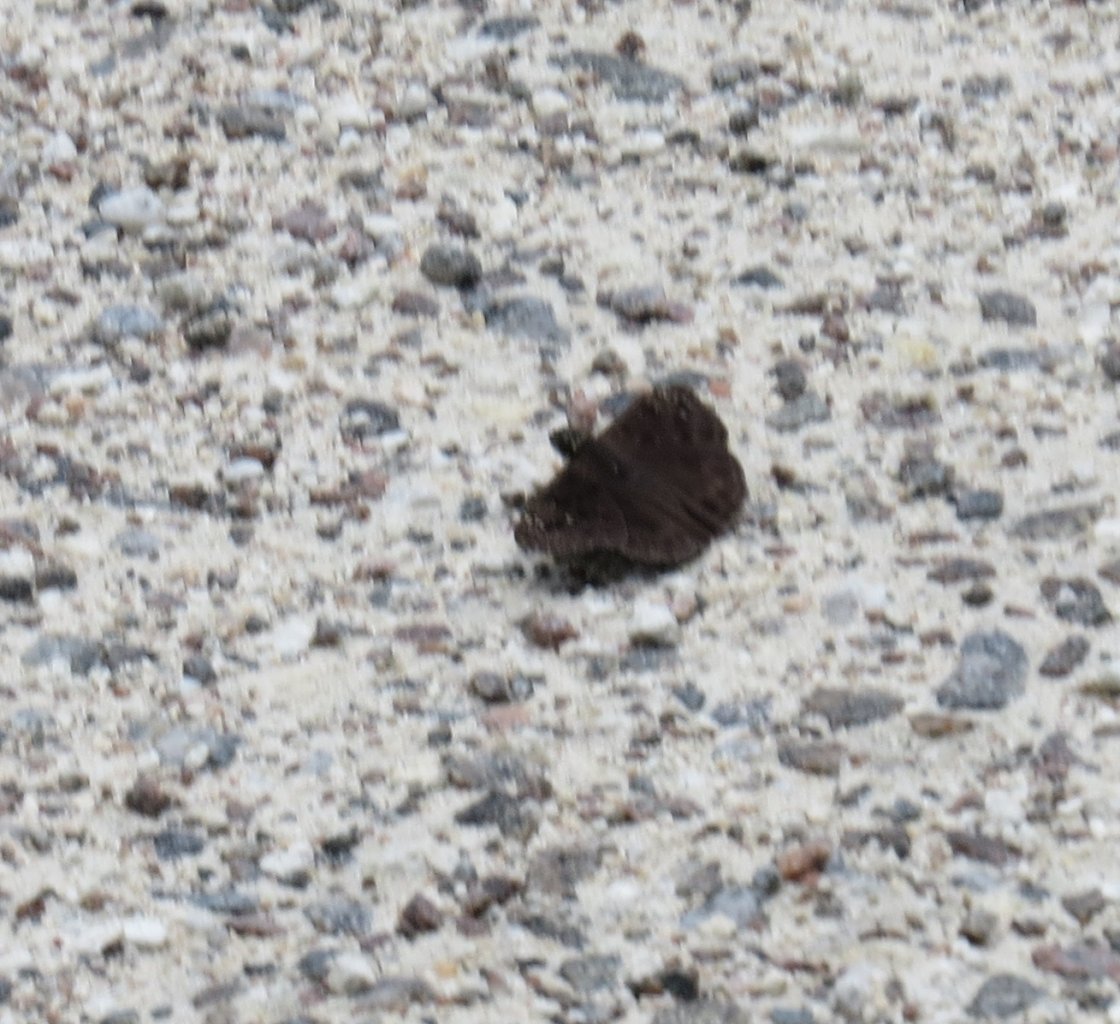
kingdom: Animalia
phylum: Arthropoda
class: Insecta
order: Lepidoptera
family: Hesperiidae
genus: Erynnis
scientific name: Erynnis zarucco
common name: Zarucco Duskywing
